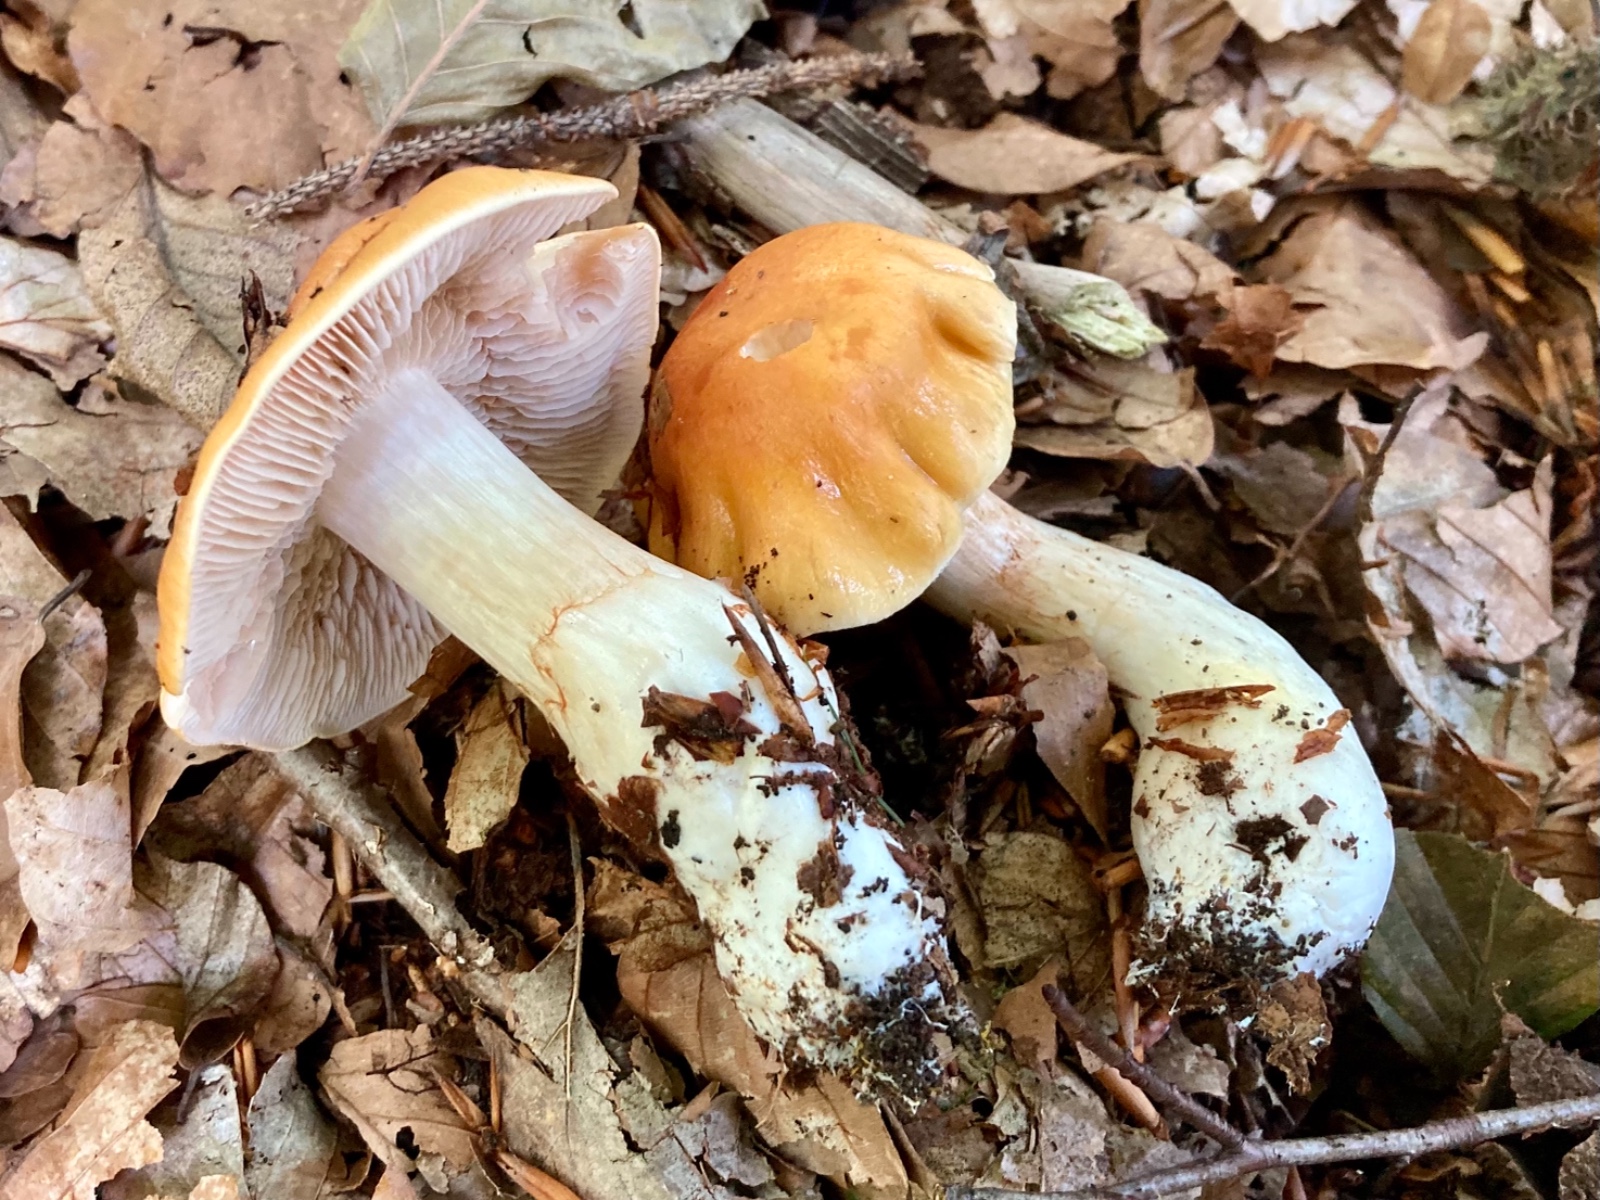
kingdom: Fungi
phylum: Basidiomycota
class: Agaricomycetes
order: Agaricales
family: Cortinariaceae
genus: Thaxterogaster
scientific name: Thaxterogaster emollitus
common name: besk slørhat
